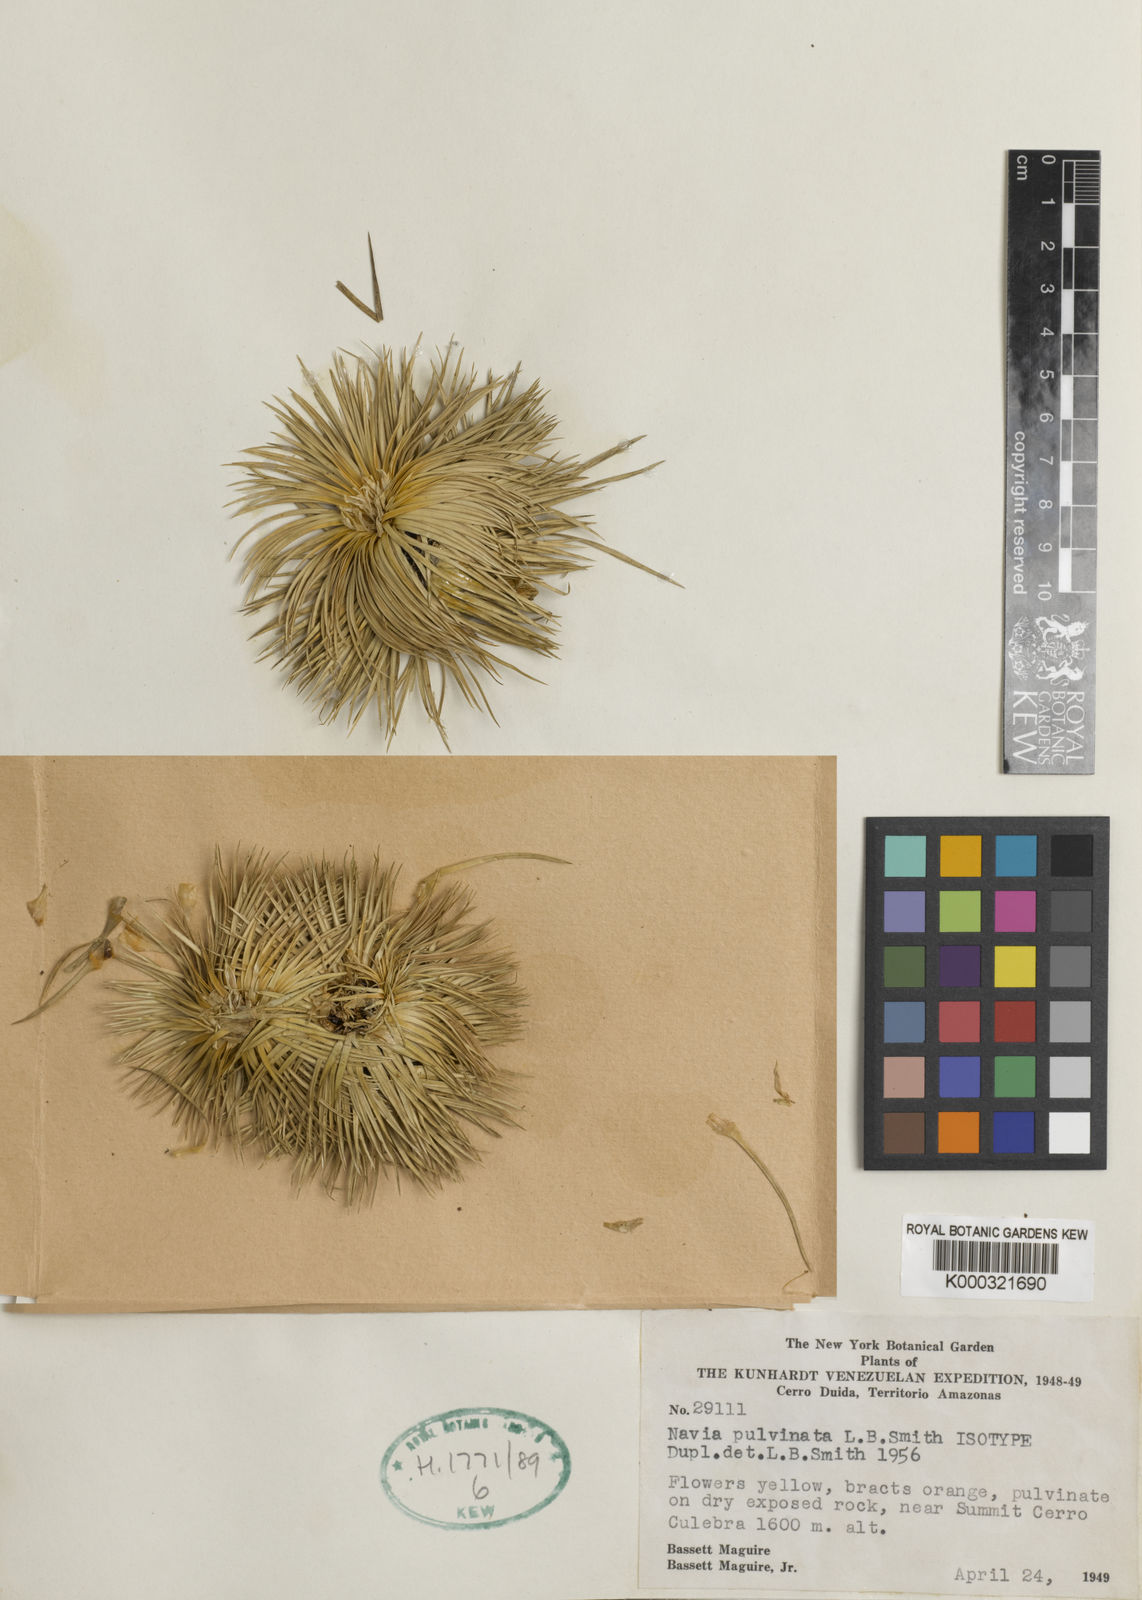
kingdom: Plantae
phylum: Tracheophyta
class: Liliopsida
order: Poales
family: Bromeliaceae
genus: Navia
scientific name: Navia pulvinata
